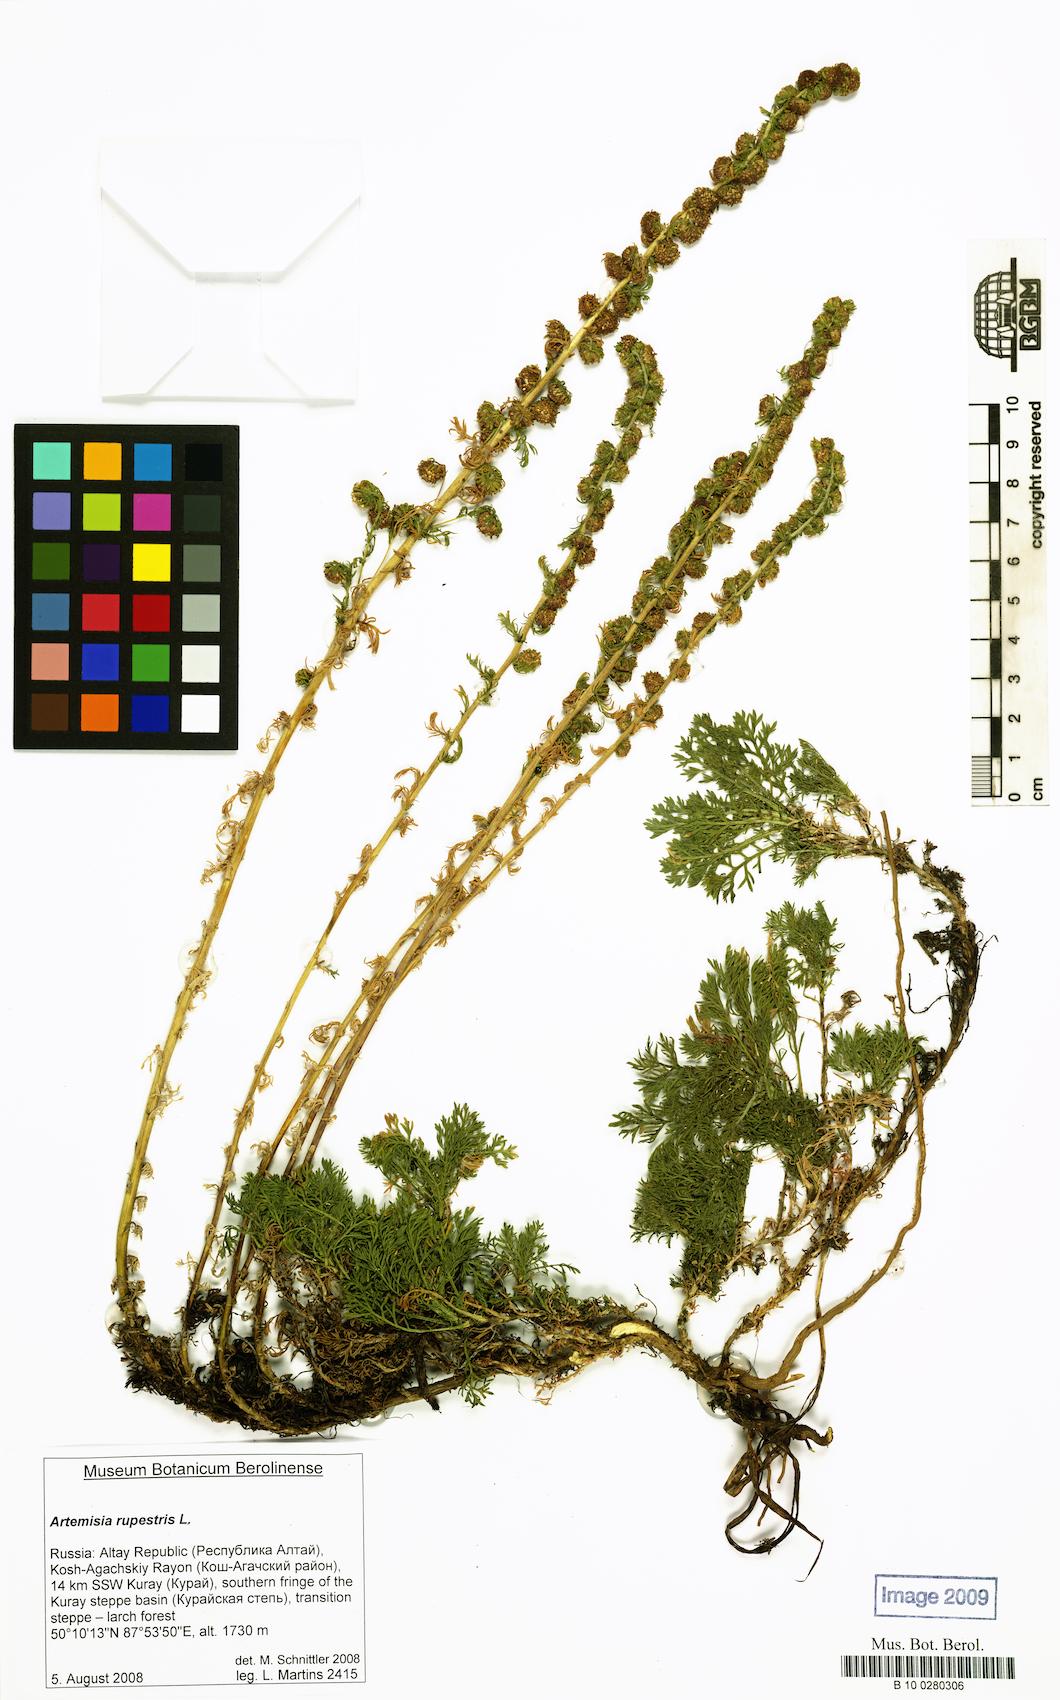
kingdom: Plantae
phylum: Tracheophyta
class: Magnoliopsida
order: Asterales
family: Asteraceae
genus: Artemisia
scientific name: Artemisia rupestris
